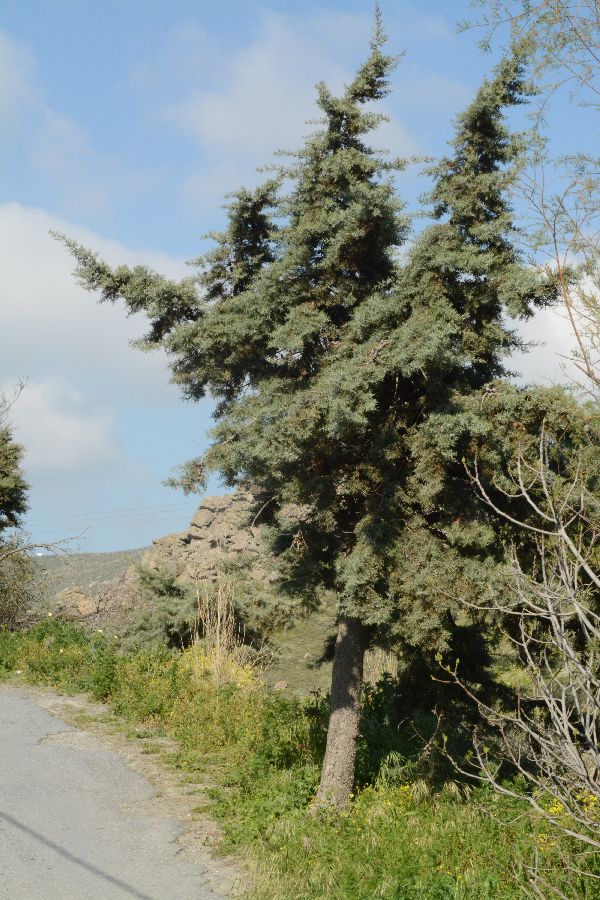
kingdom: Plantae
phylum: Tracheophyta
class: Pinopsida
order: Pinales
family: Cupressaceae
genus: Cupressus
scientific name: Cupressus sempervirens
